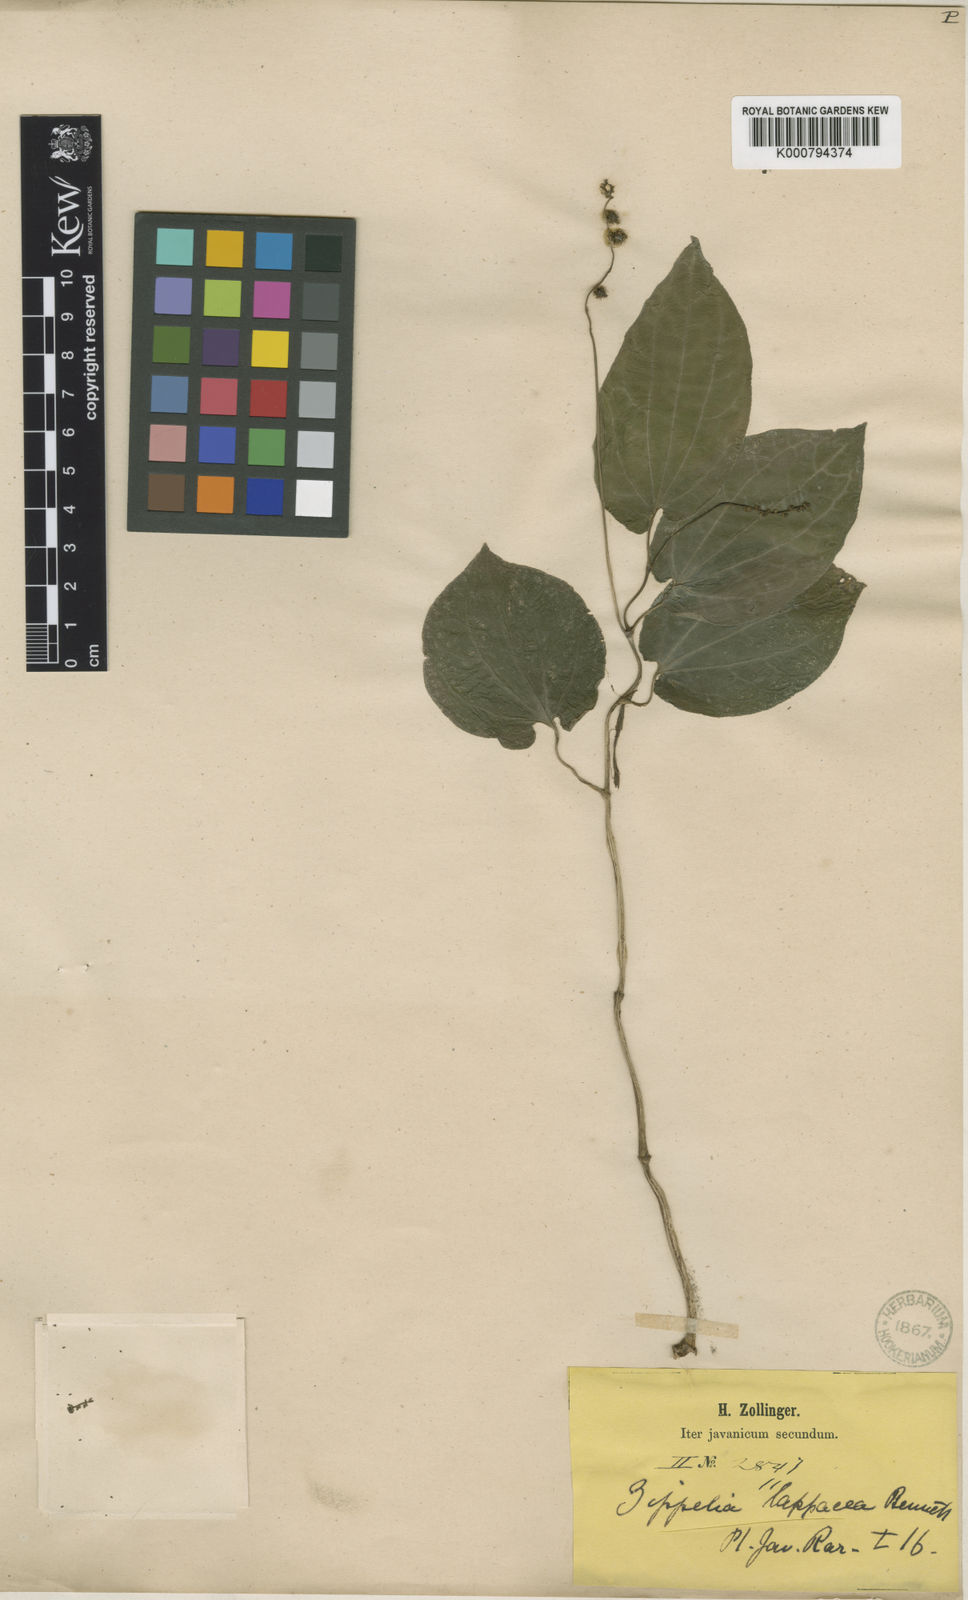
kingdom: Plantae
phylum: Tracheophyta
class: Magnoliopsida
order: Piperales
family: Piperaceae
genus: Zippelia
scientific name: Zippelia begoniifolia
